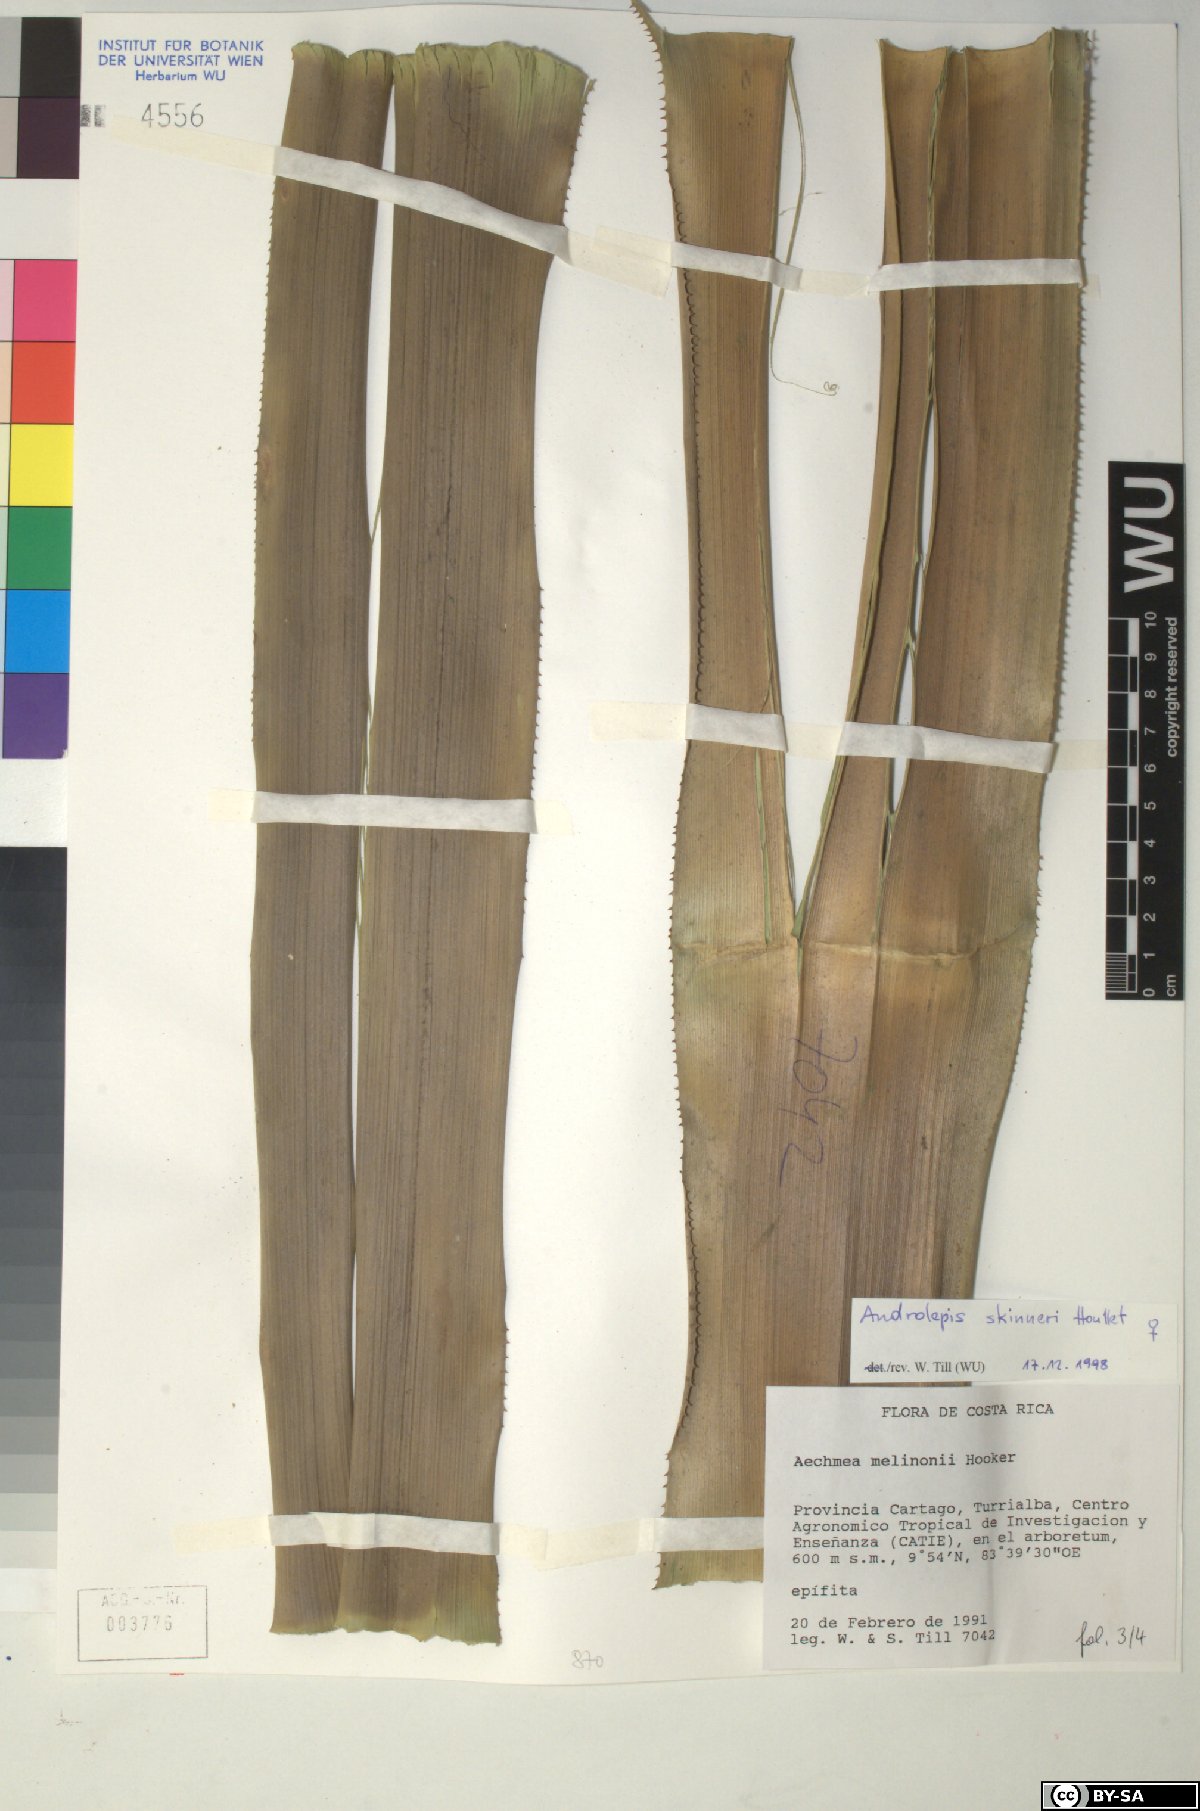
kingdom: Plantae
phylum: Tracheophyta
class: Liliopsida
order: Poales
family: Bromeliaceae
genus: Androlepis
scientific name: Androlepis skinneri
